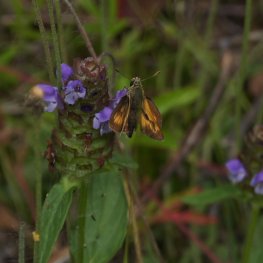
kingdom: Animalia
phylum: Arthropoda
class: Insecta
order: Lepidoptera
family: Hesperiidae
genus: Polites
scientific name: Polites
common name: Long Dash Skipper
